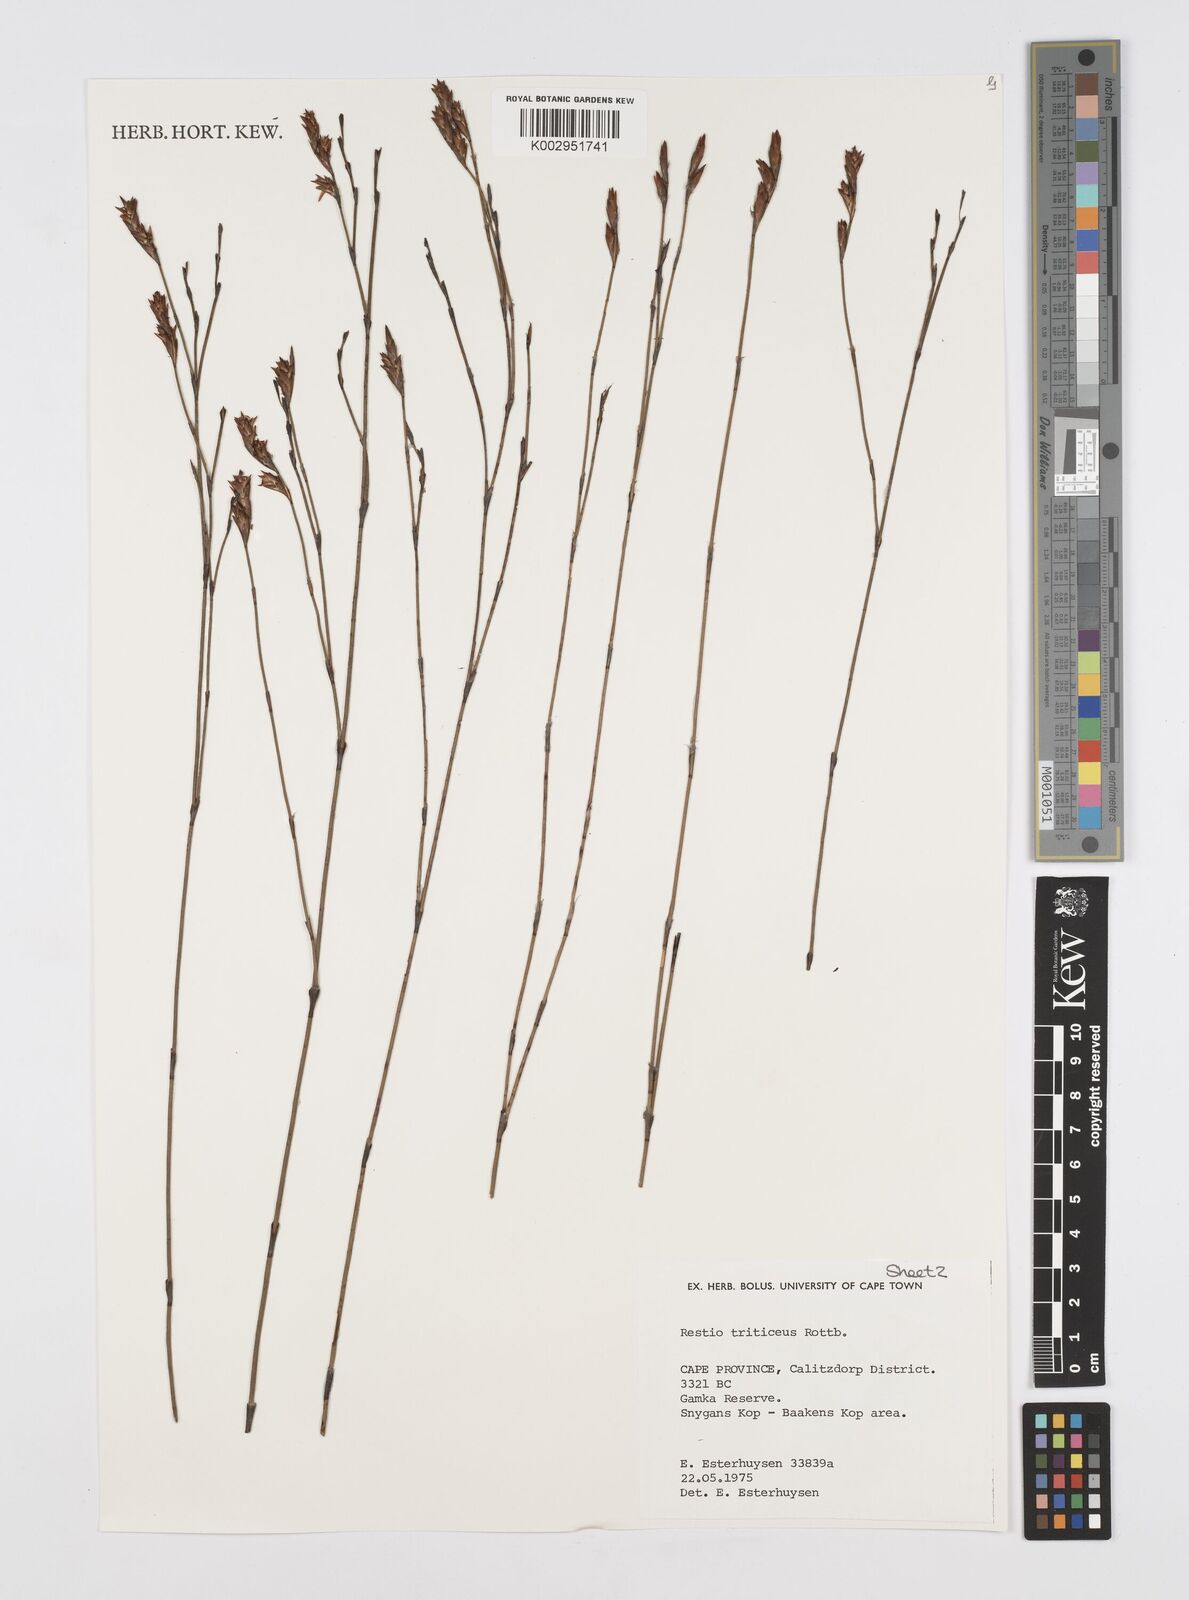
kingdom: Plantae
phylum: Tracheophyta
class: Liliopsida
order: Poales
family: Restionaceae
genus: Restio
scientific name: Restio triticeus
